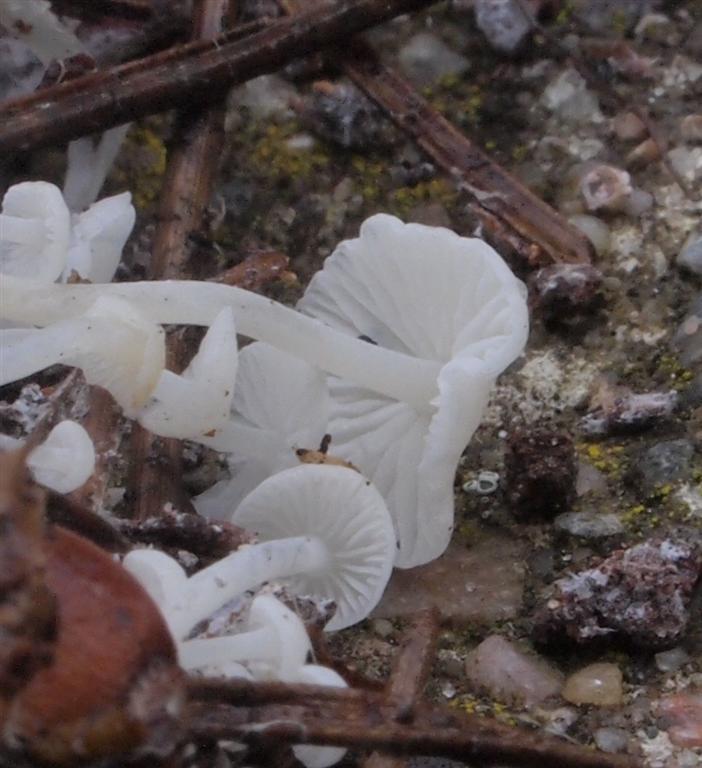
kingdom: Fungi
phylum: Basidiomycota
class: Agaricomycetes
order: Agaricales
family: Mycenaceae
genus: Hemimycena
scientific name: Hemimycena lactea
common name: mælkehvid huesvamp
